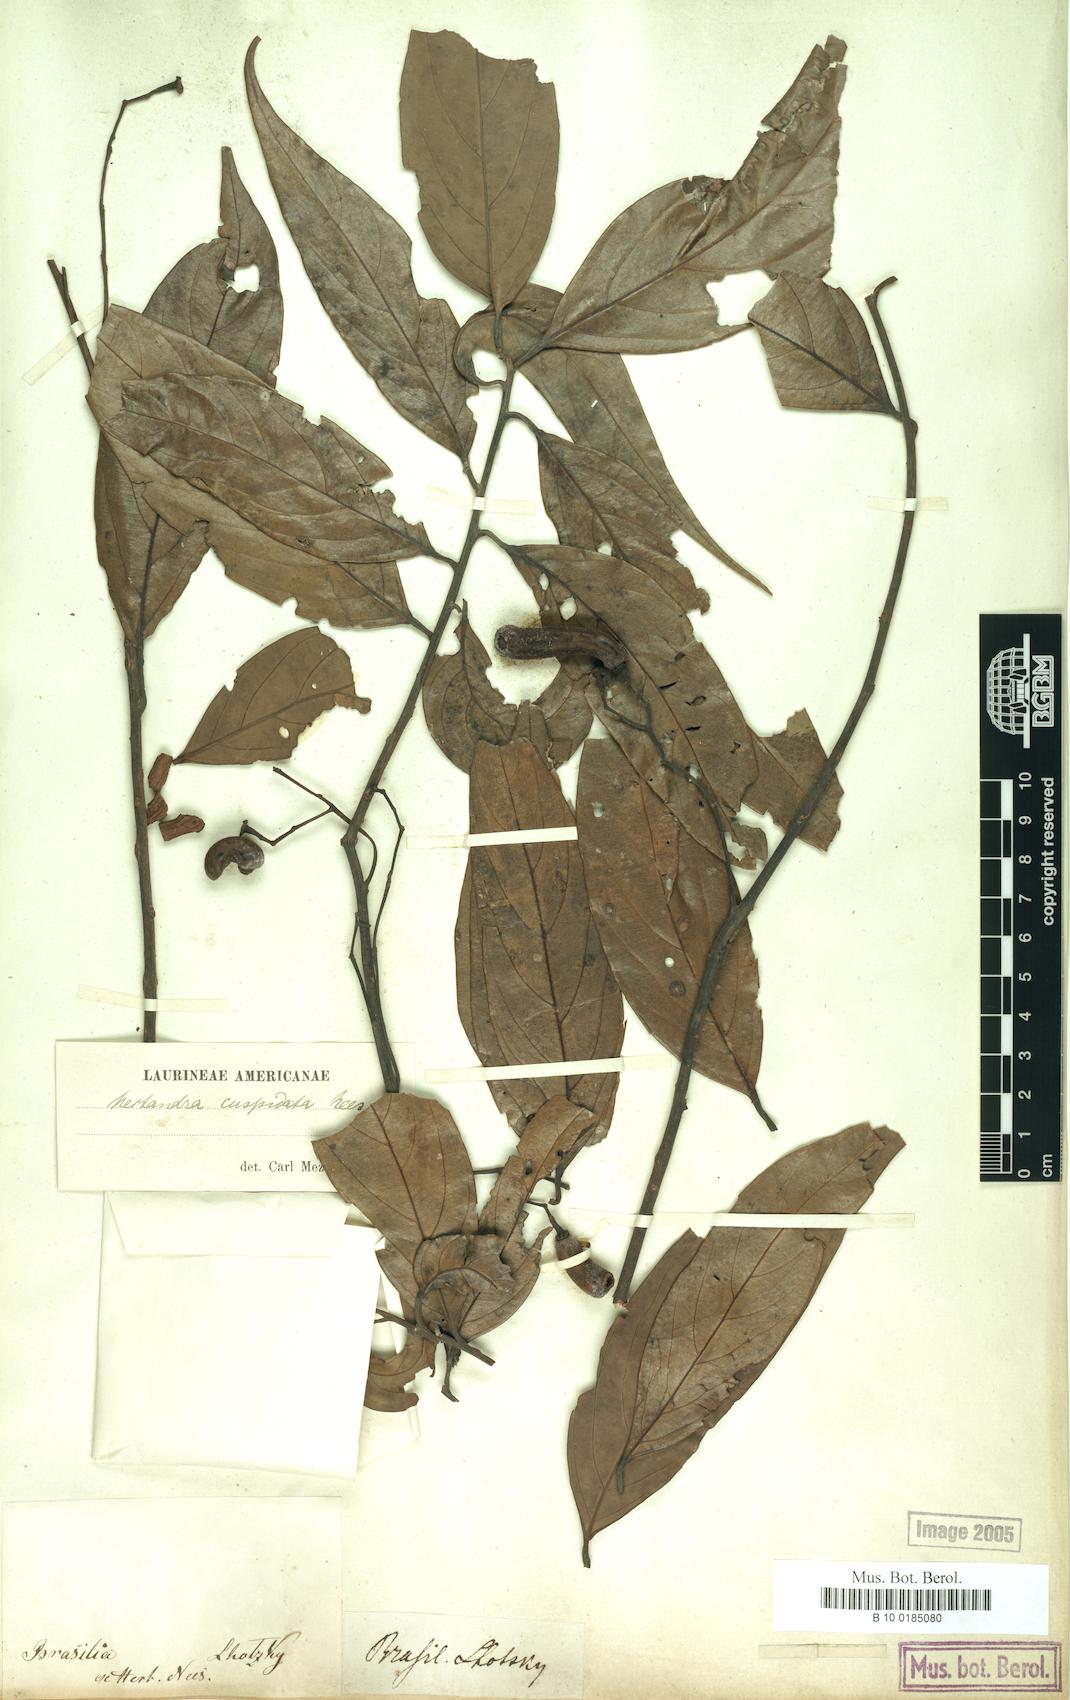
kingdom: Plantae
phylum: Tracheophyta
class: Magnoliopsida
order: Laurales
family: Lauraceae
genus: Nectandra
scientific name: Nectandra cuspidata
